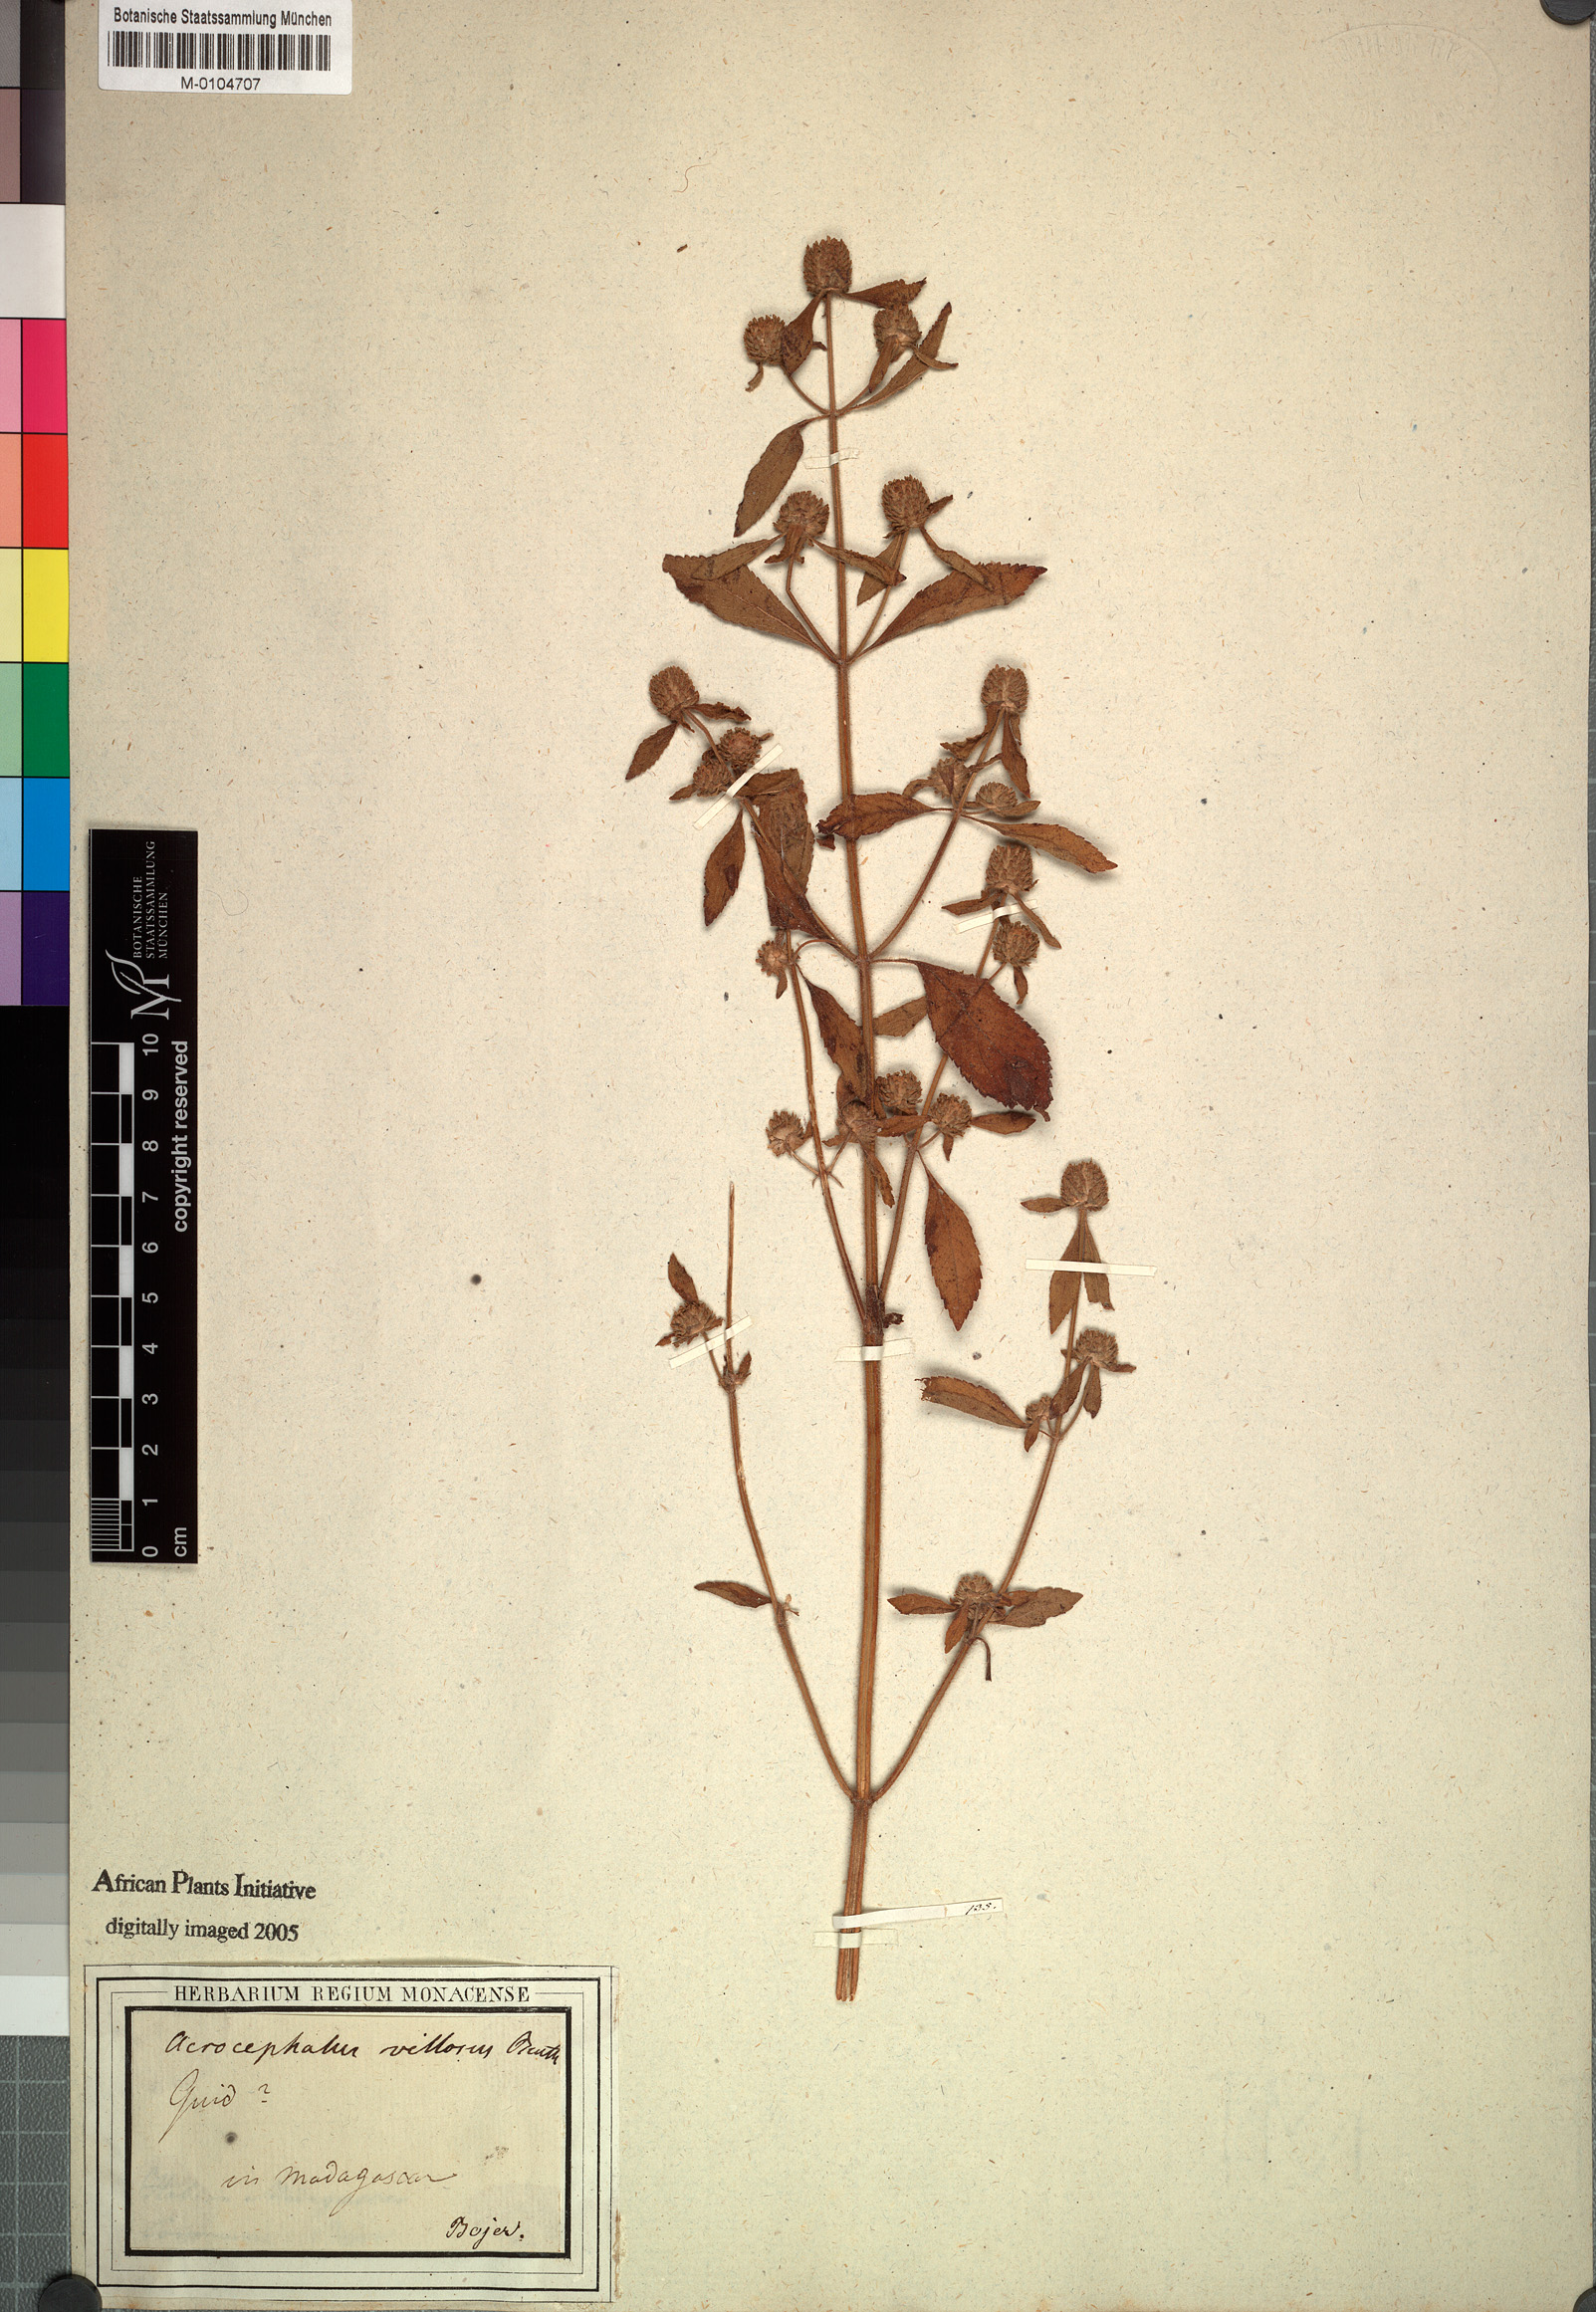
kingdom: Plantae
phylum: Tracheophyta
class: Magnoliopsida
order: Lamiales
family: Lamiaceae
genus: Haumaniastrum
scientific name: Haumaniastrum villosum
